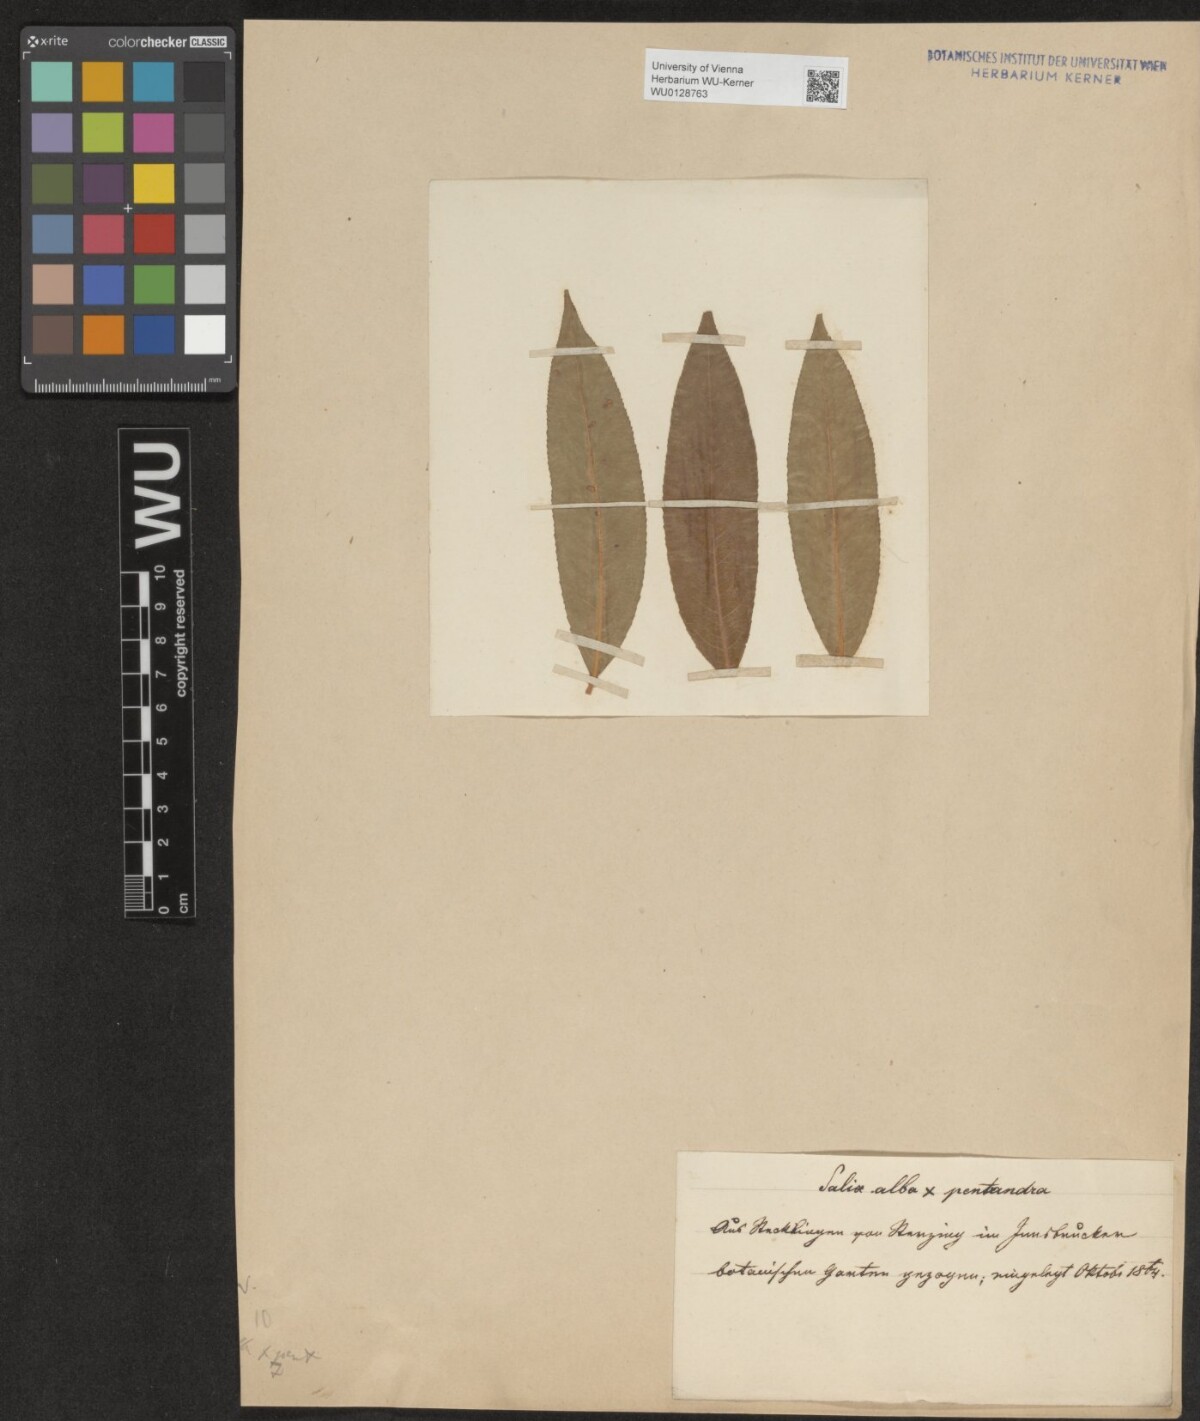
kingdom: Plantae
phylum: Tracheophyta
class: Magnoliopsida
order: Malpighiales
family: Salicaceae
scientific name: Salicaceae
